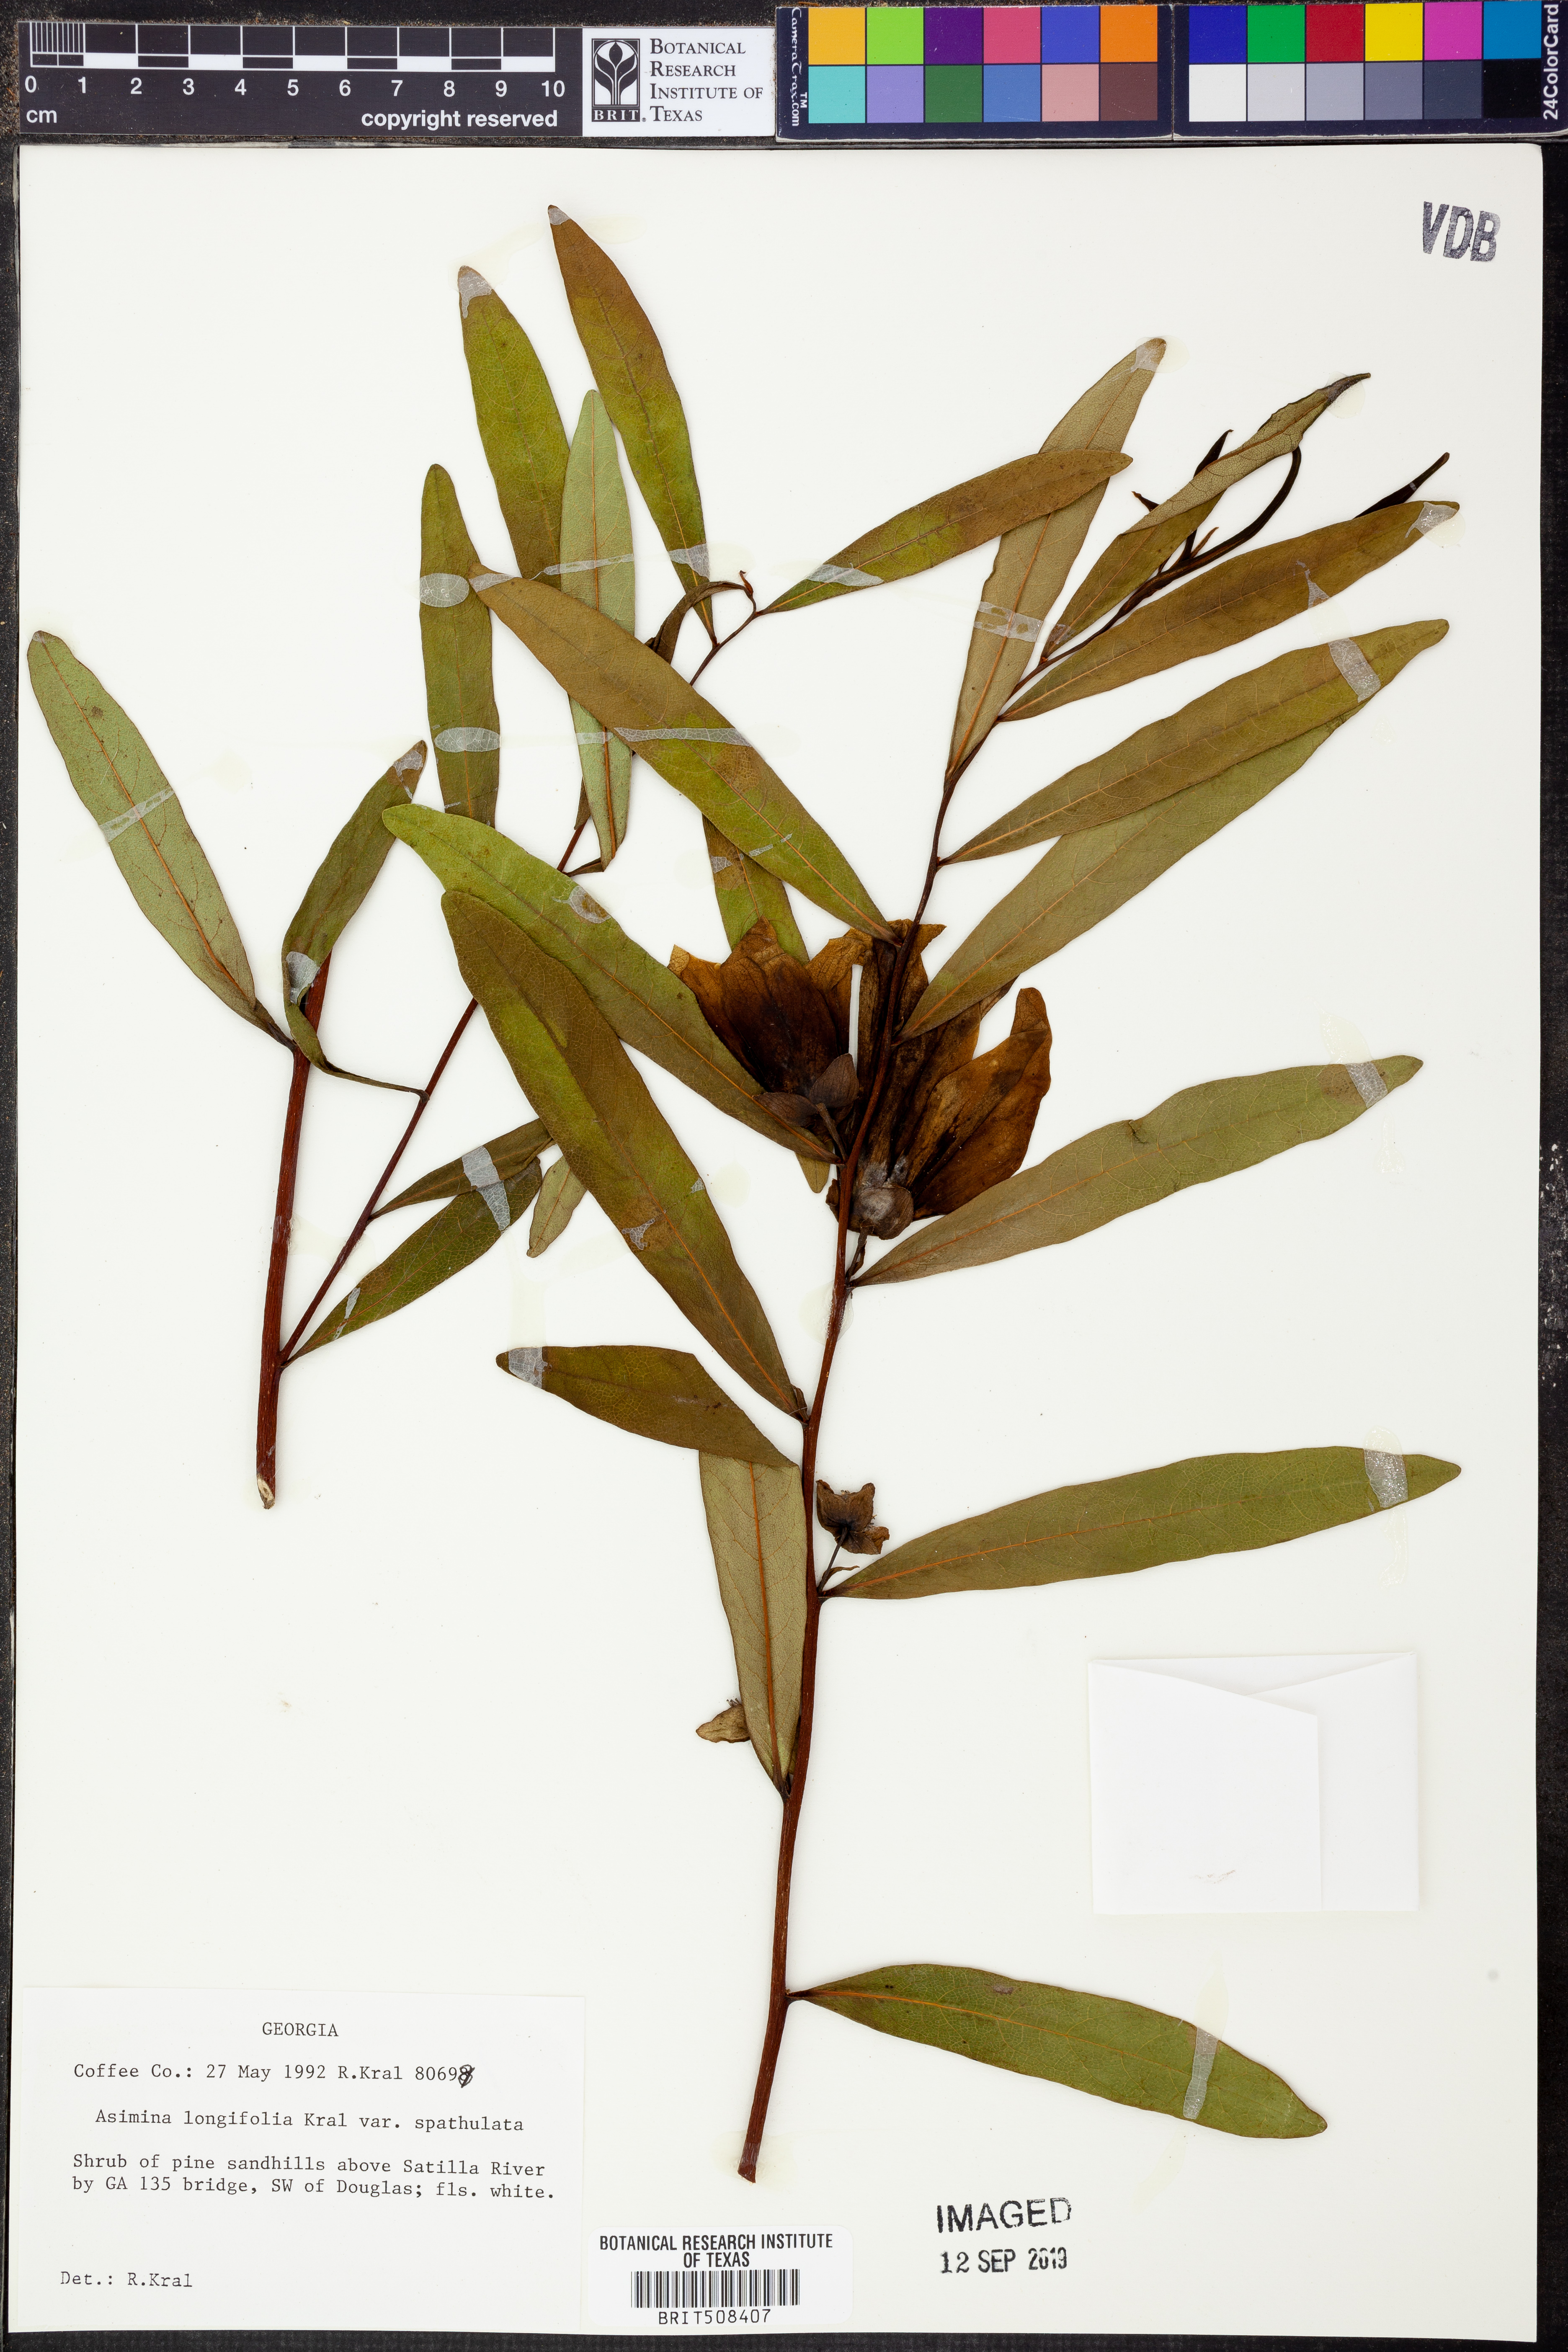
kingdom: Plantae
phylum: Tracheophyta
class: Magnoliopsida
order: Magnoliales
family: Annonaceae
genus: Asimina
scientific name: Asimina longifolia
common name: Polecatbush
